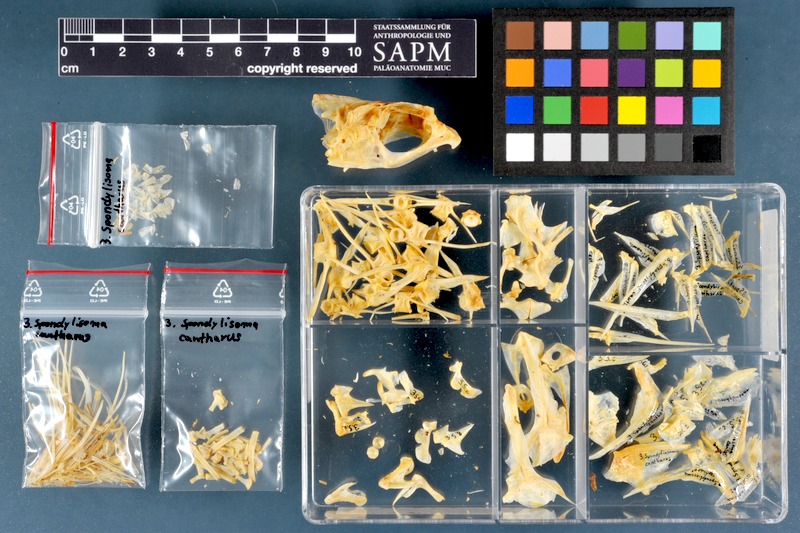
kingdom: Animalia
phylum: Chordata
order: Perciformes
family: Sparidae
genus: Spondyliosoma
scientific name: Spondyliosoma cantharus
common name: Black seabream
